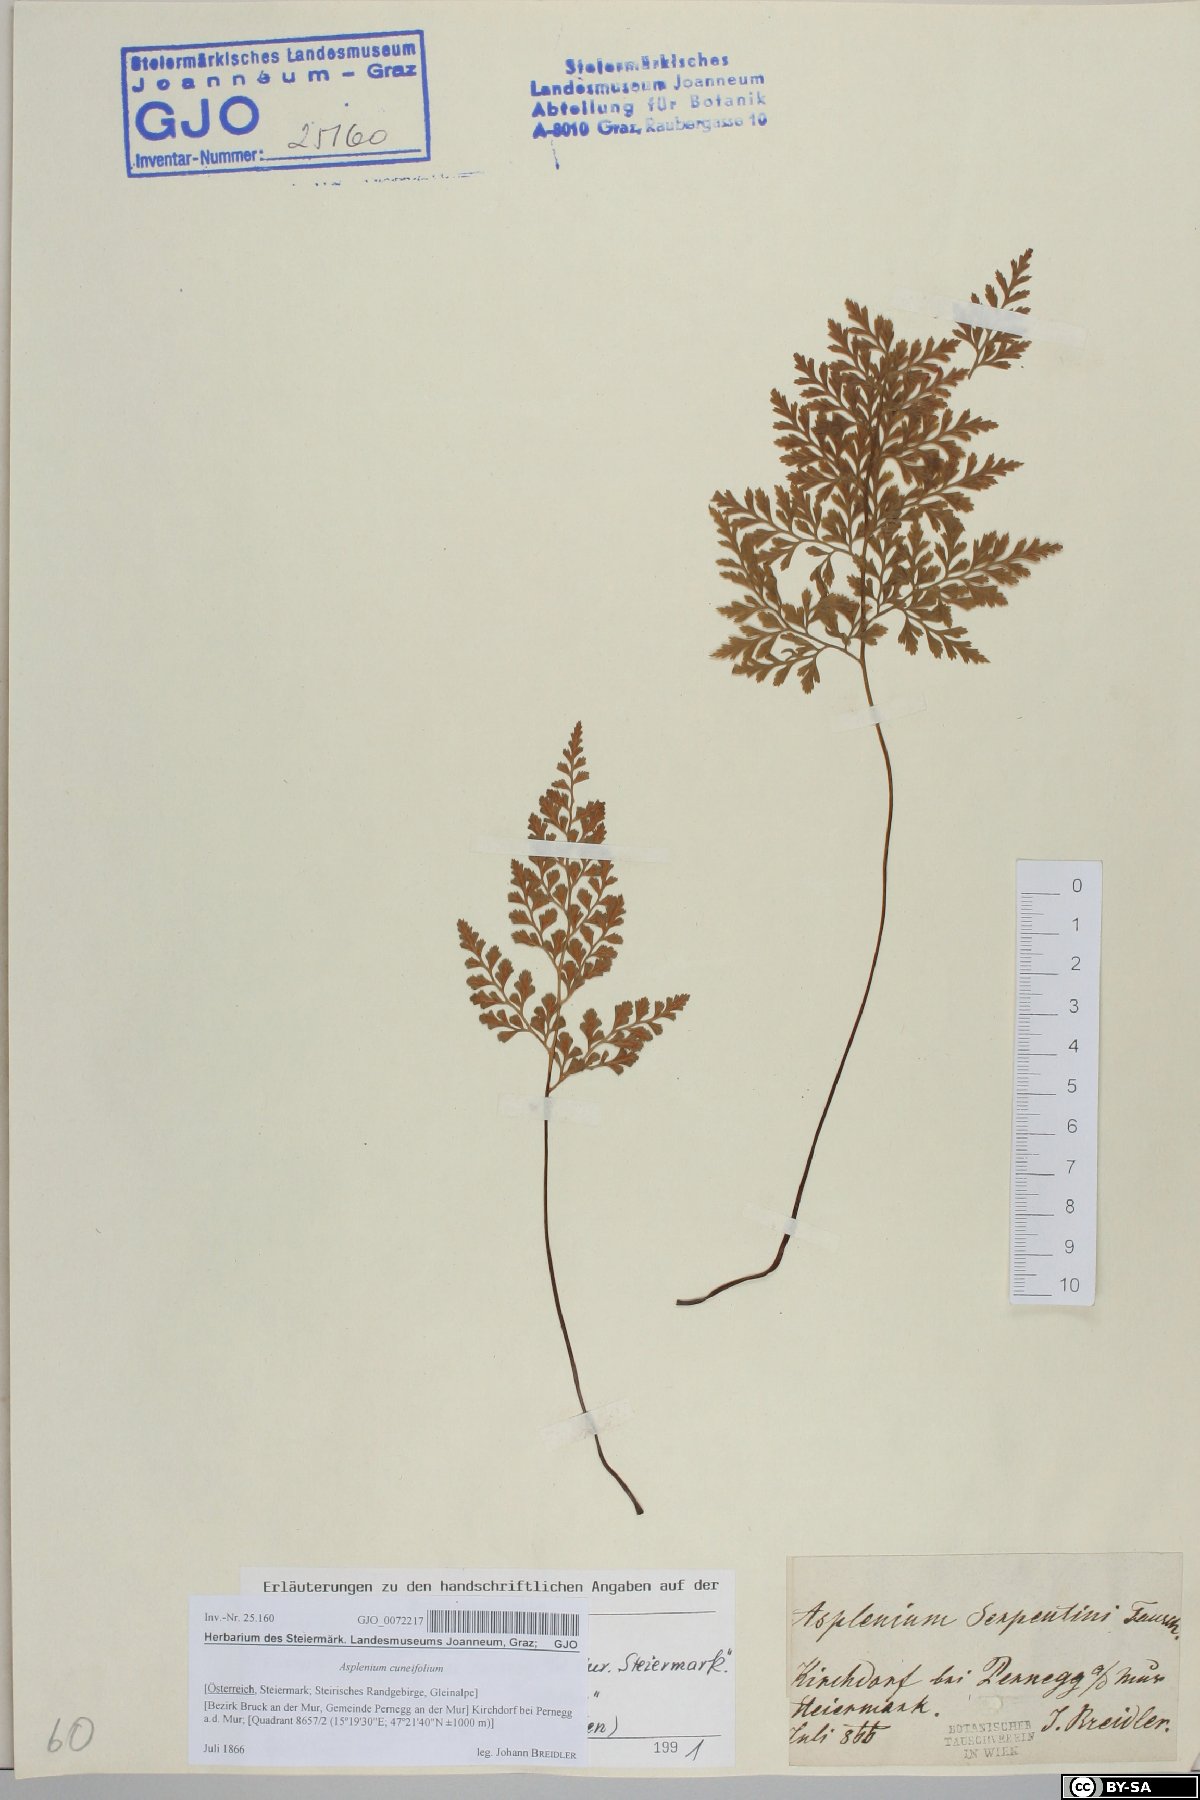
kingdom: Plantae
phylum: Tracheophyta
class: Polypodiopsida
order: Polypodiales
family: Aspleniaceae
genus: Asplenium
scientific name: Asplenium cuneifolium
